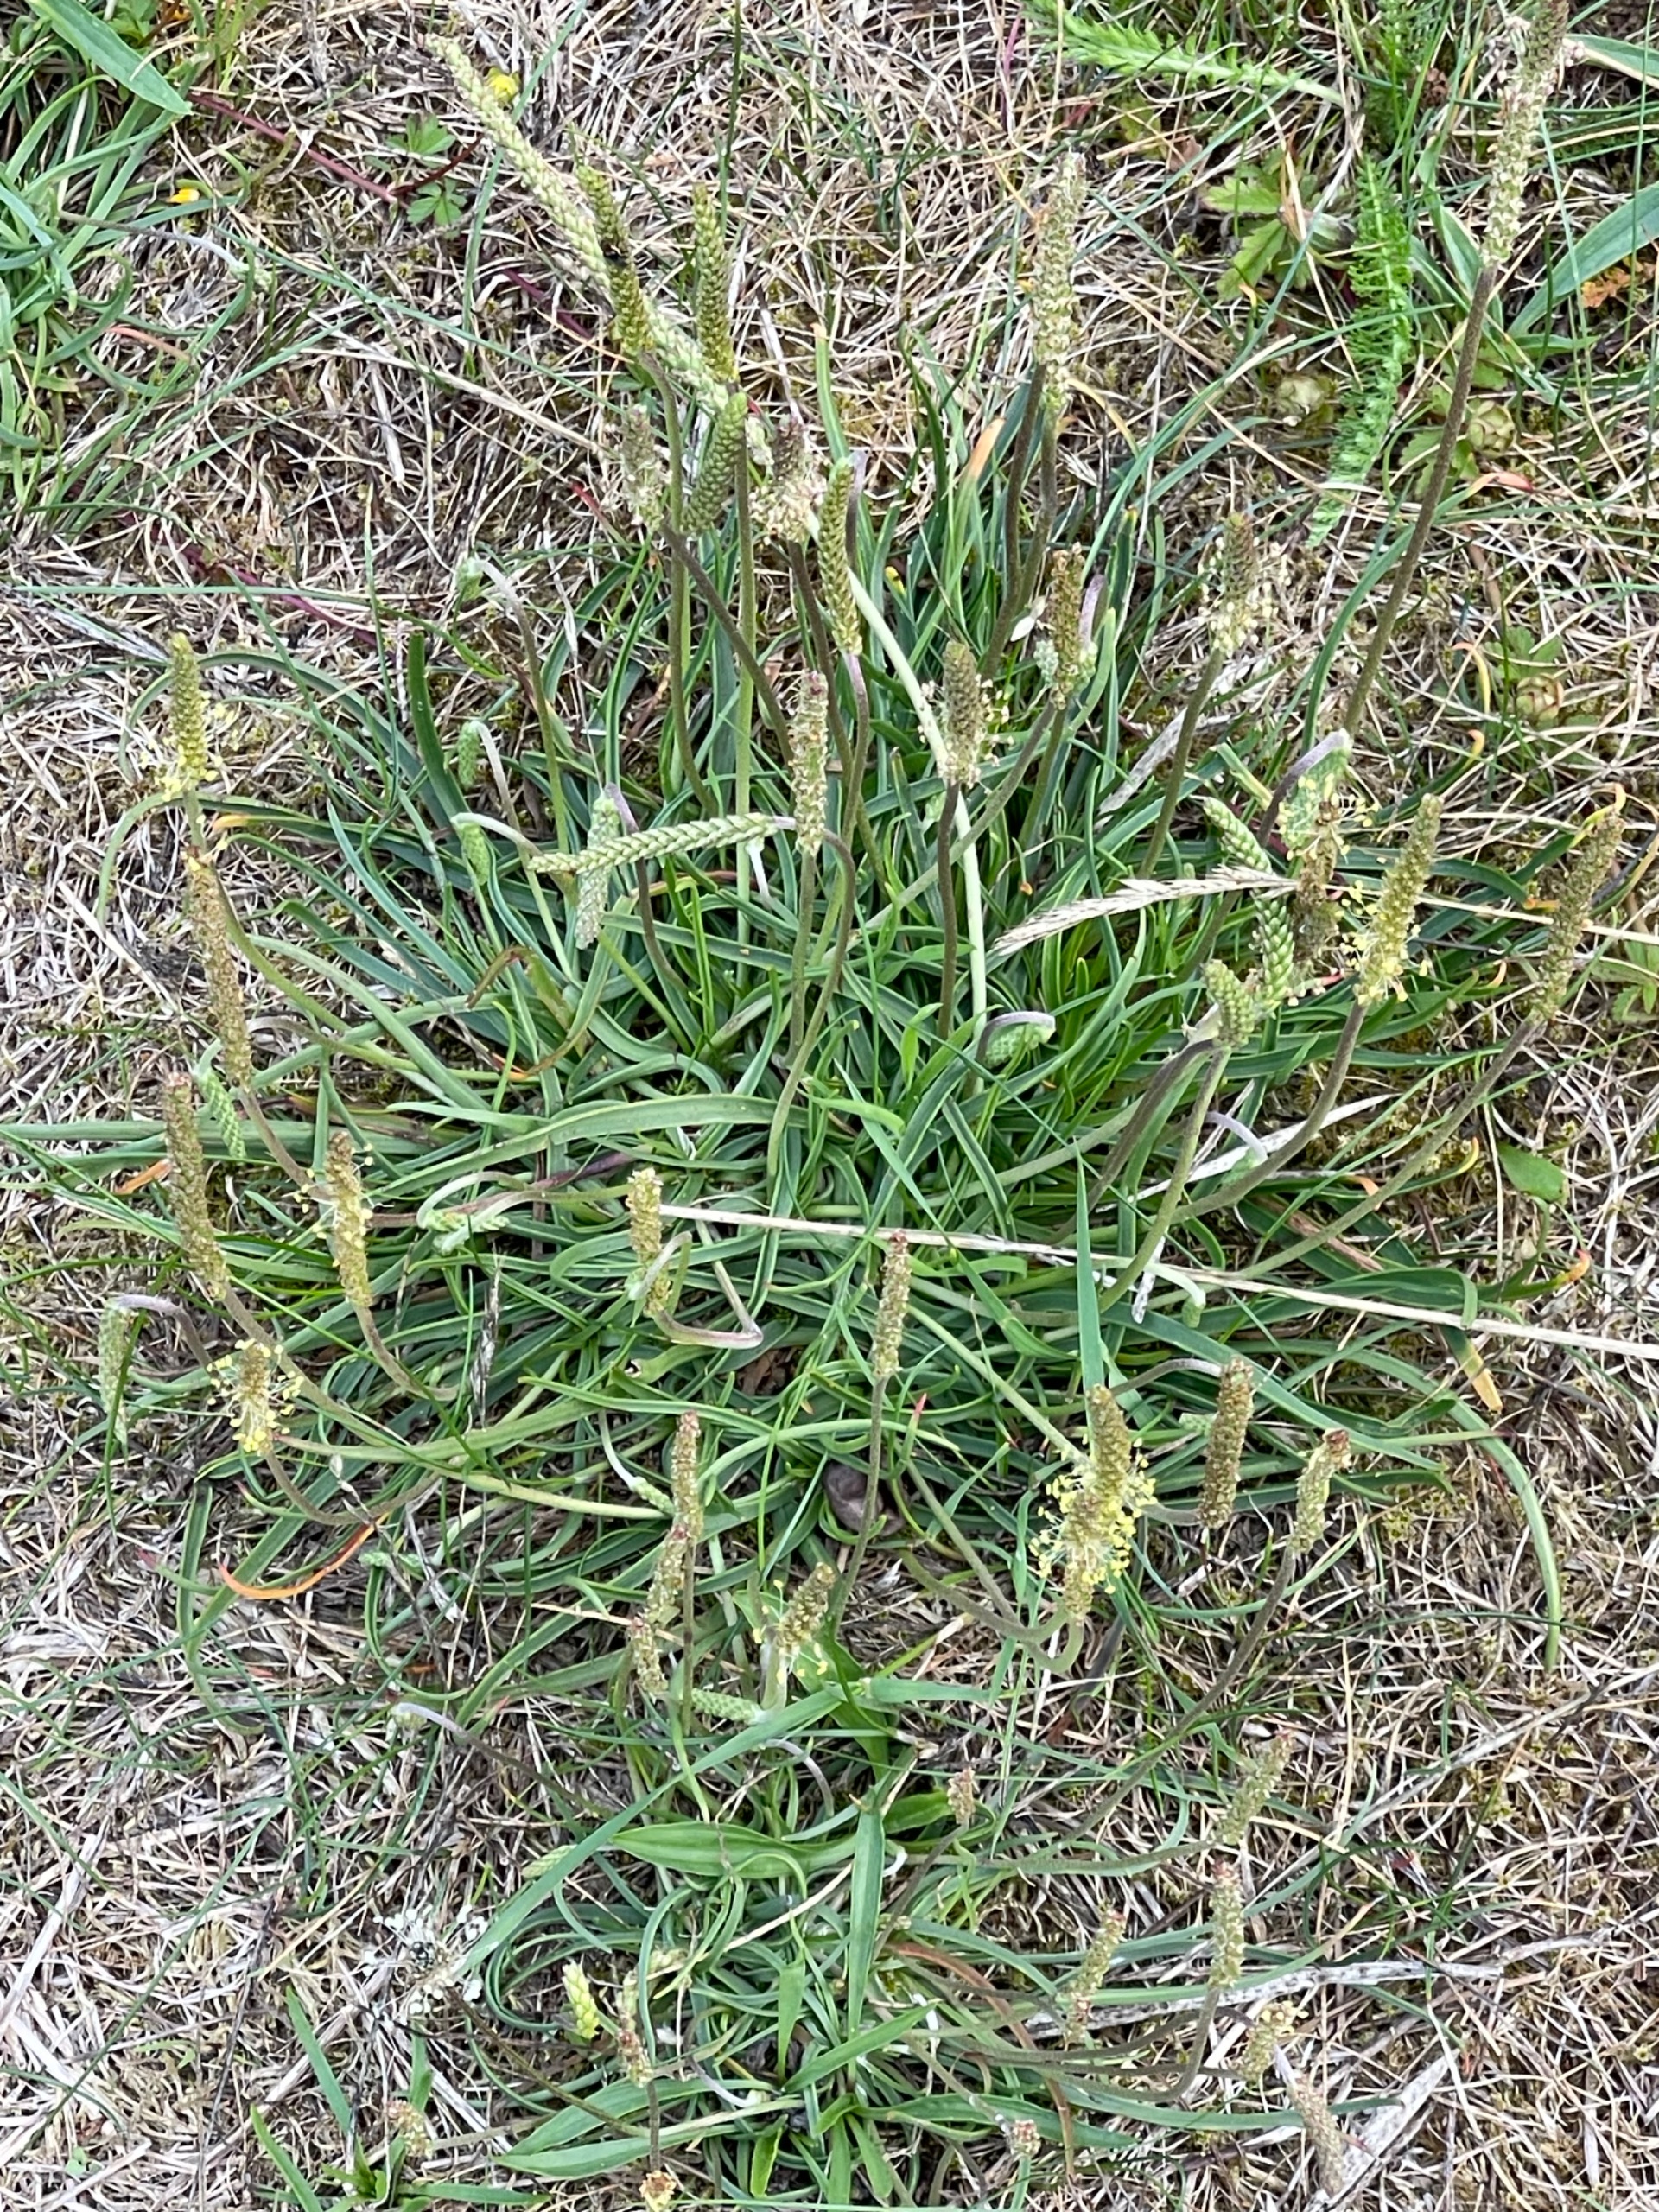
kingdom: Plantae
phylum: Tracheophyta
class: Magnoliopsida
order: Lamiales
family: Plantaginaceae
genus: Plantago
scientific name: Plantago maritima
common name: Strand-vejbred
